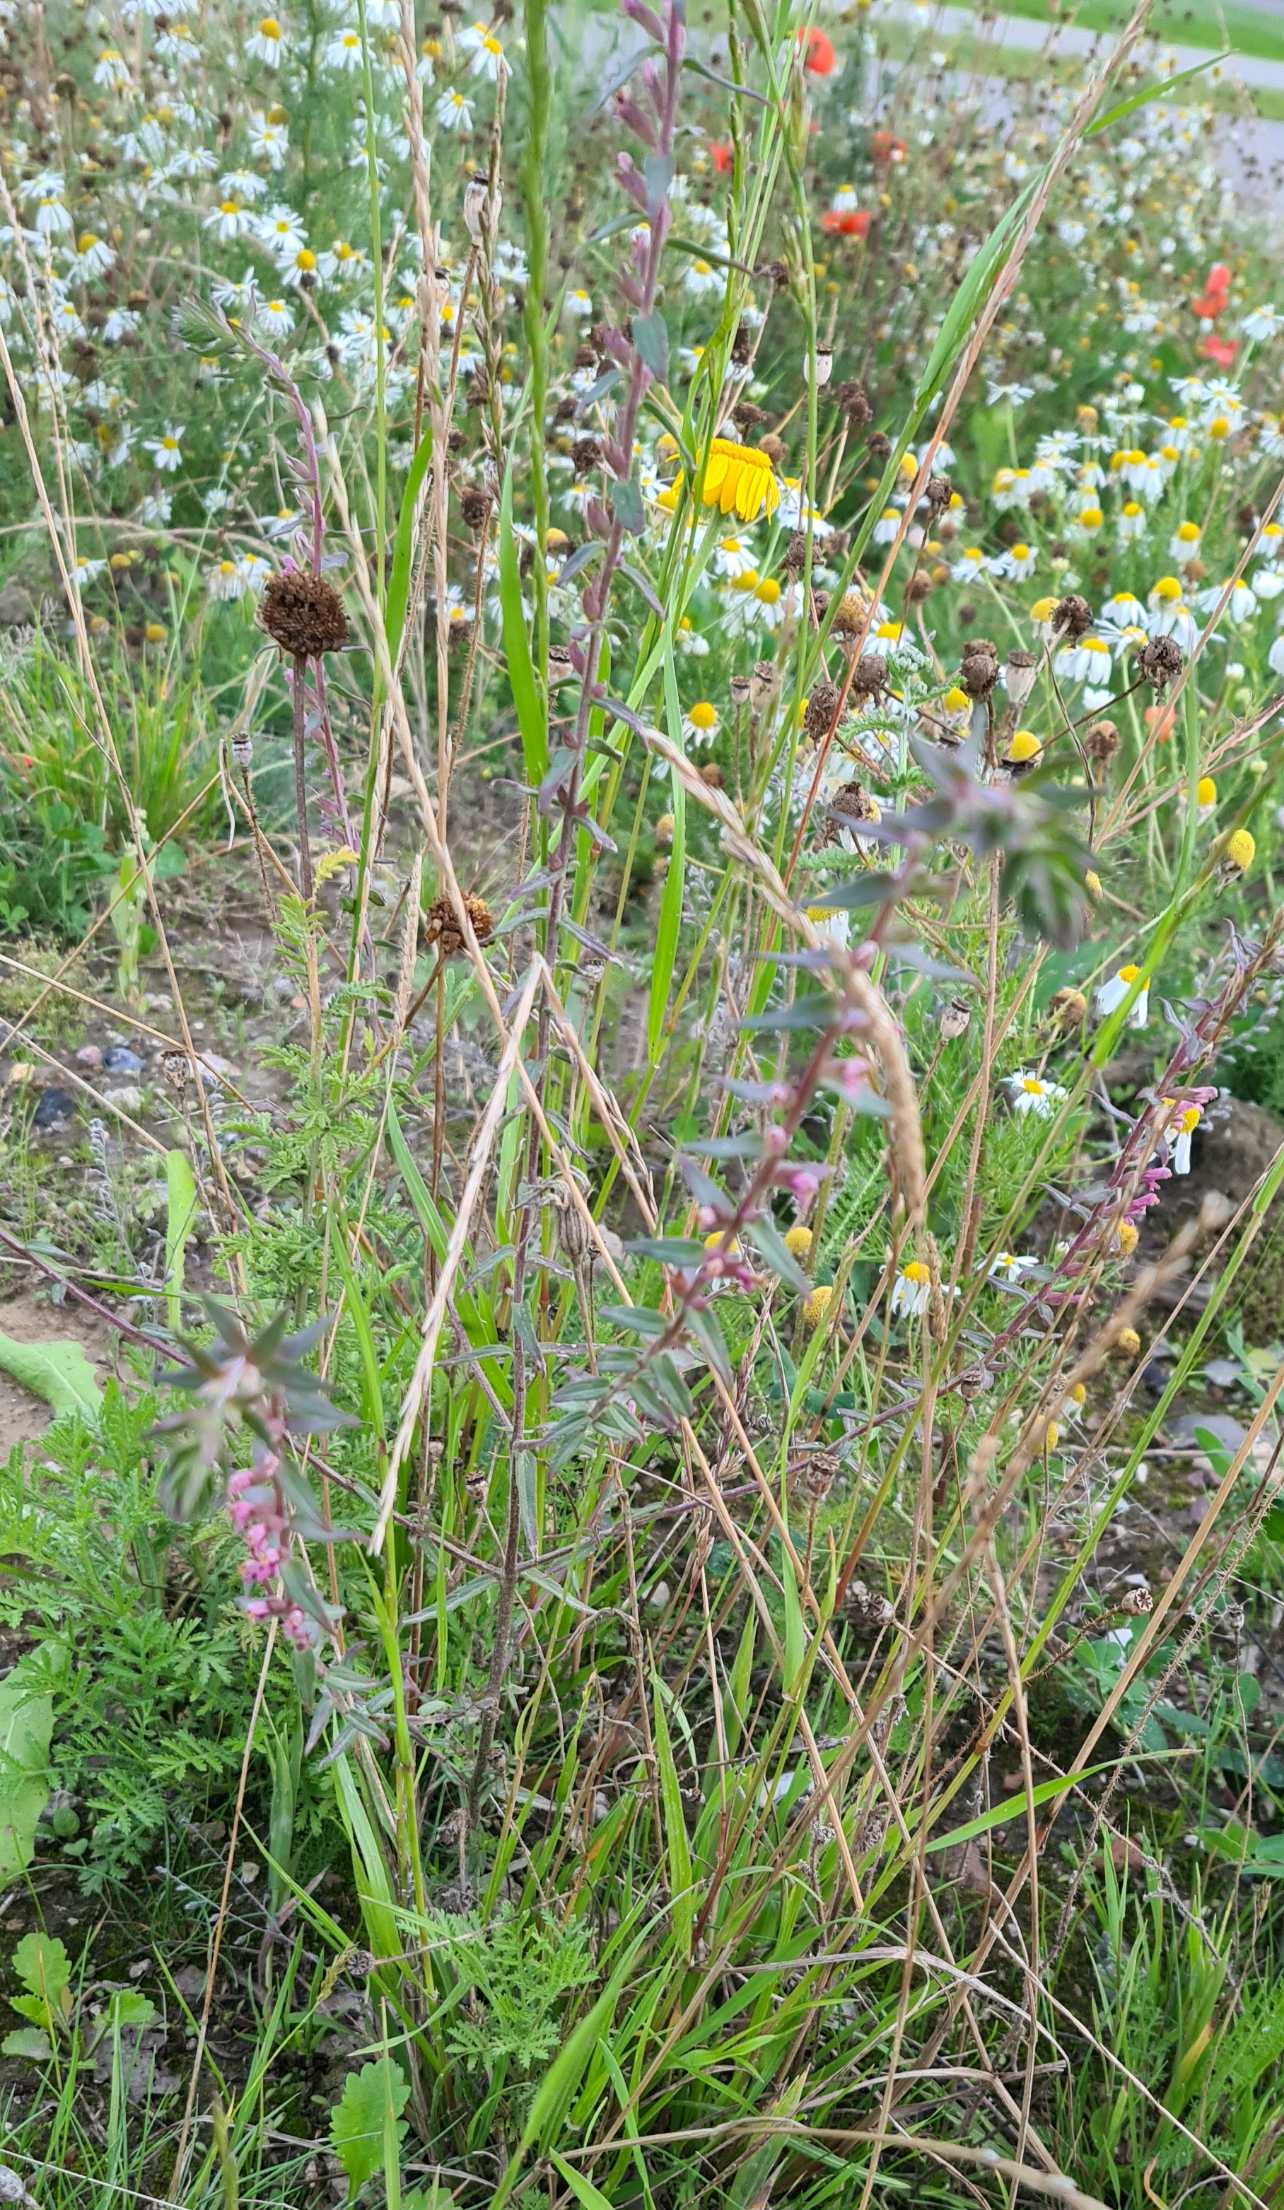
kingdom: Plantae
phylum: Tracheophyta
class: Magnoliopsida
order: Lamiales
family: Orobanchaceae
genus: Odontites
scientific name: Odontites vulgaris
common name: Høst-rødtop
